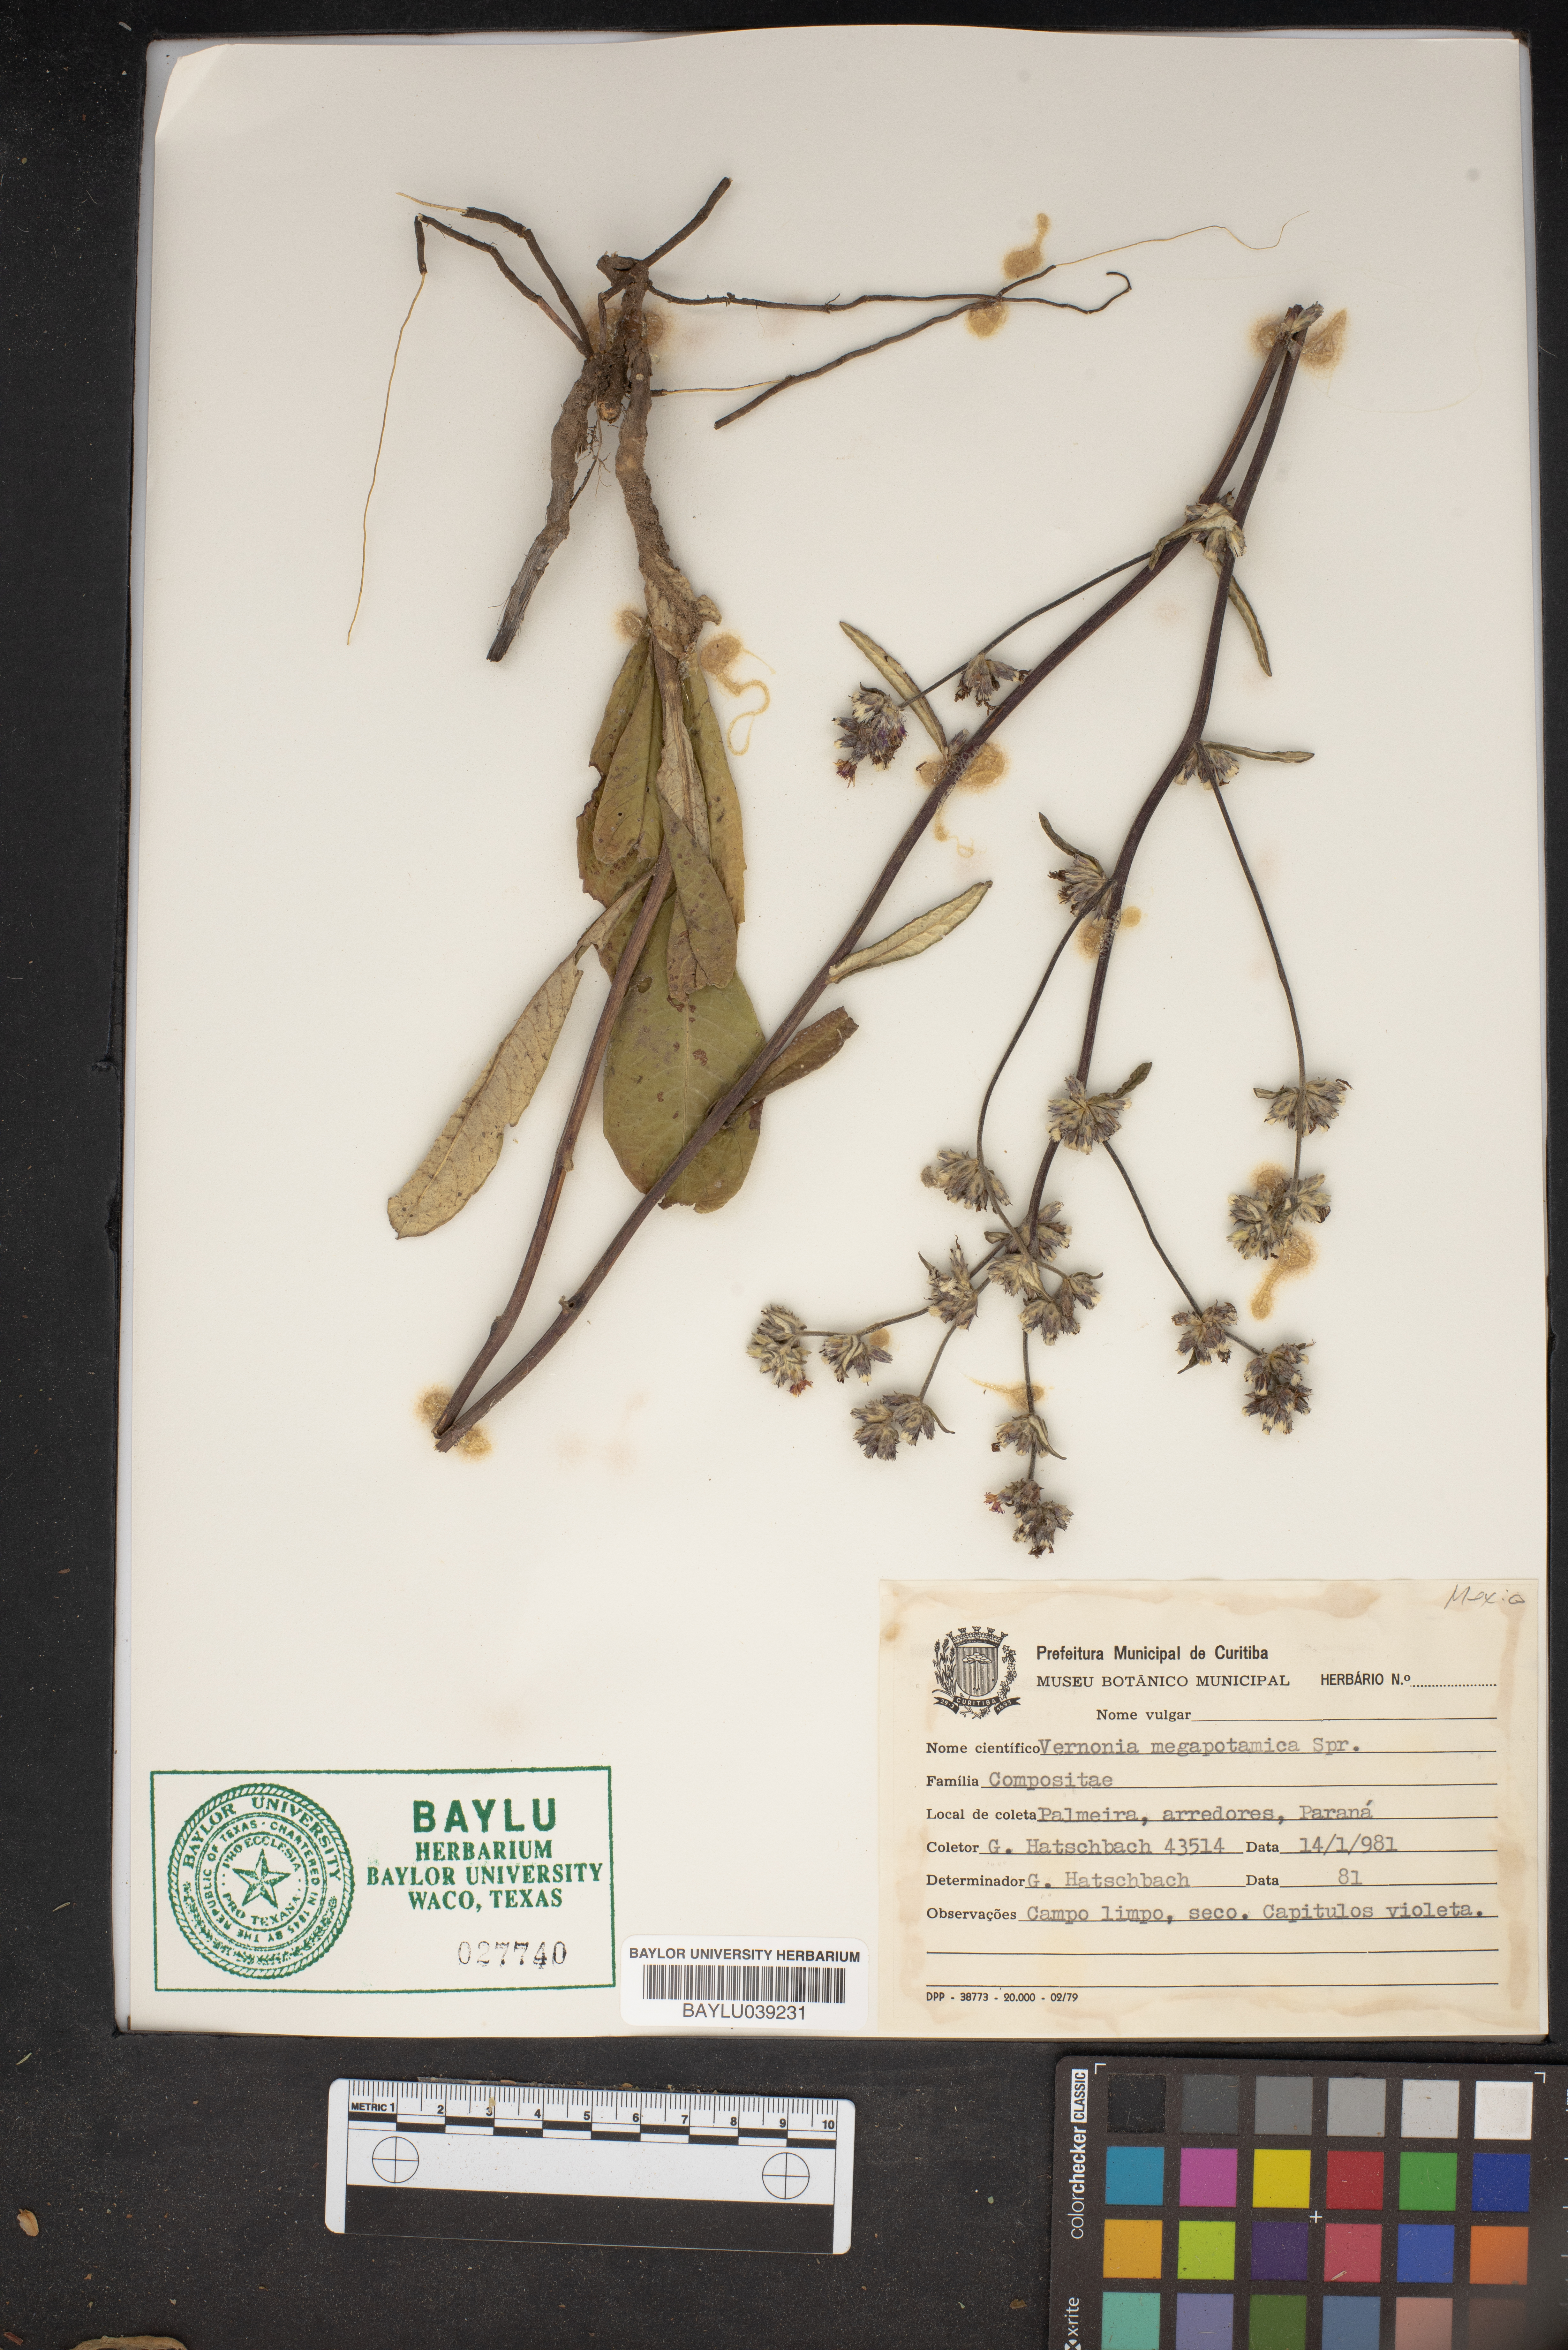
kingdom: Plantae
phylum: Tracheophyta
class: Magnoliopsida
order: Asterales
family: Asteraceae
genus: Stenocephalum
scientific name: Stenocephalum megapotamicum
